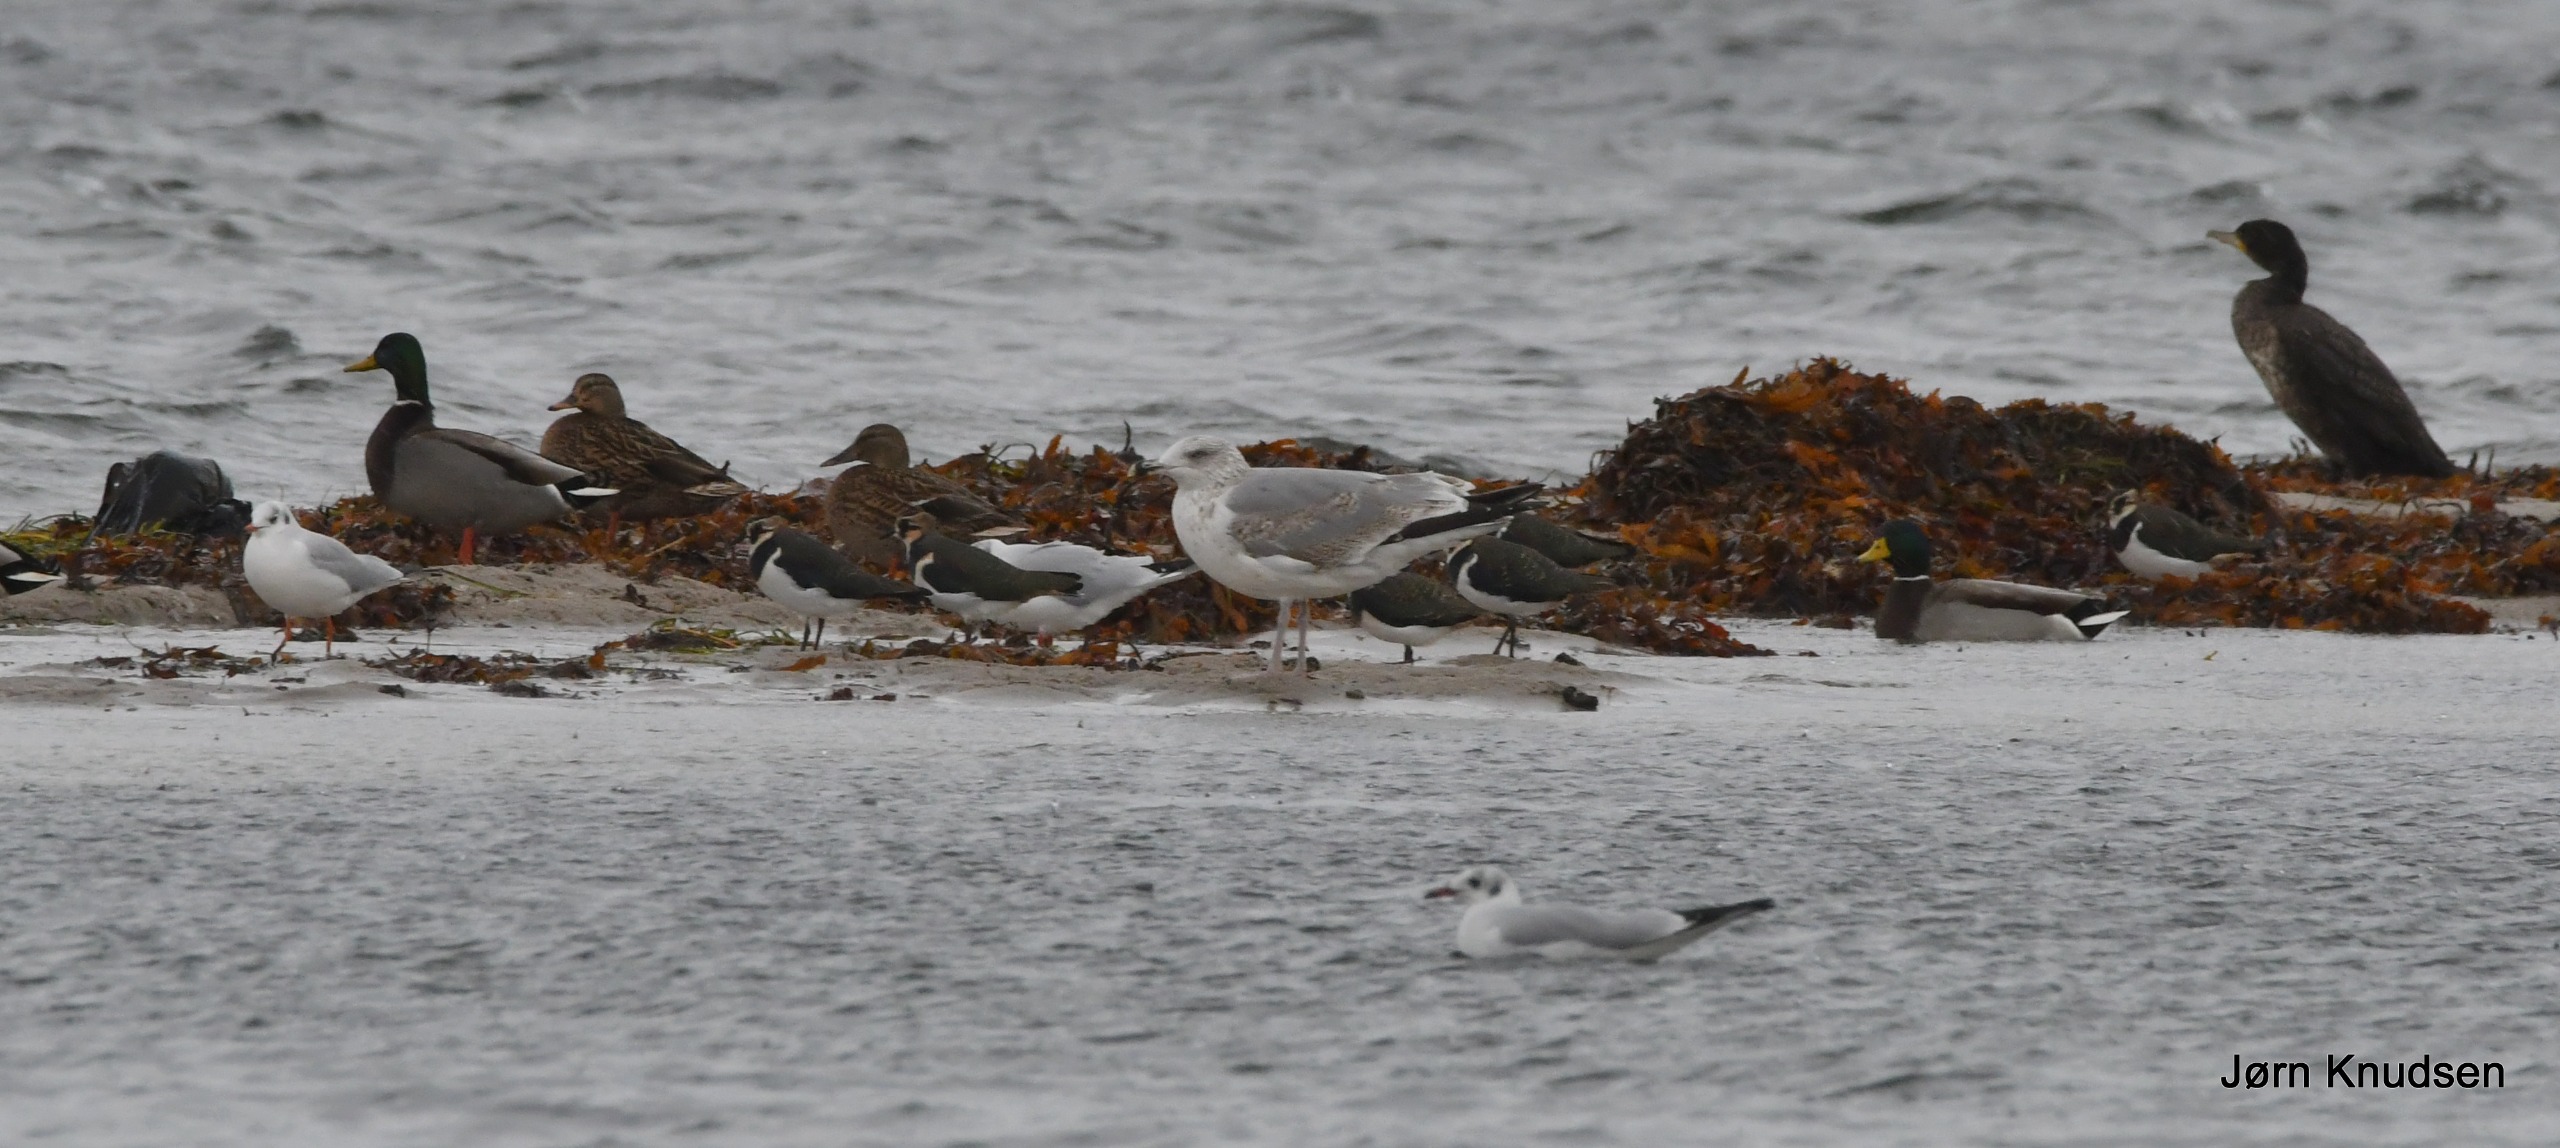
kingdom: Animalia
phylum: Chordata
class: Aves
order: Suliformes
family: Phalacrocoracidae
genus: Phalacrocorax
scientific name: Phalacrocorax carbo
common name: Skarv
